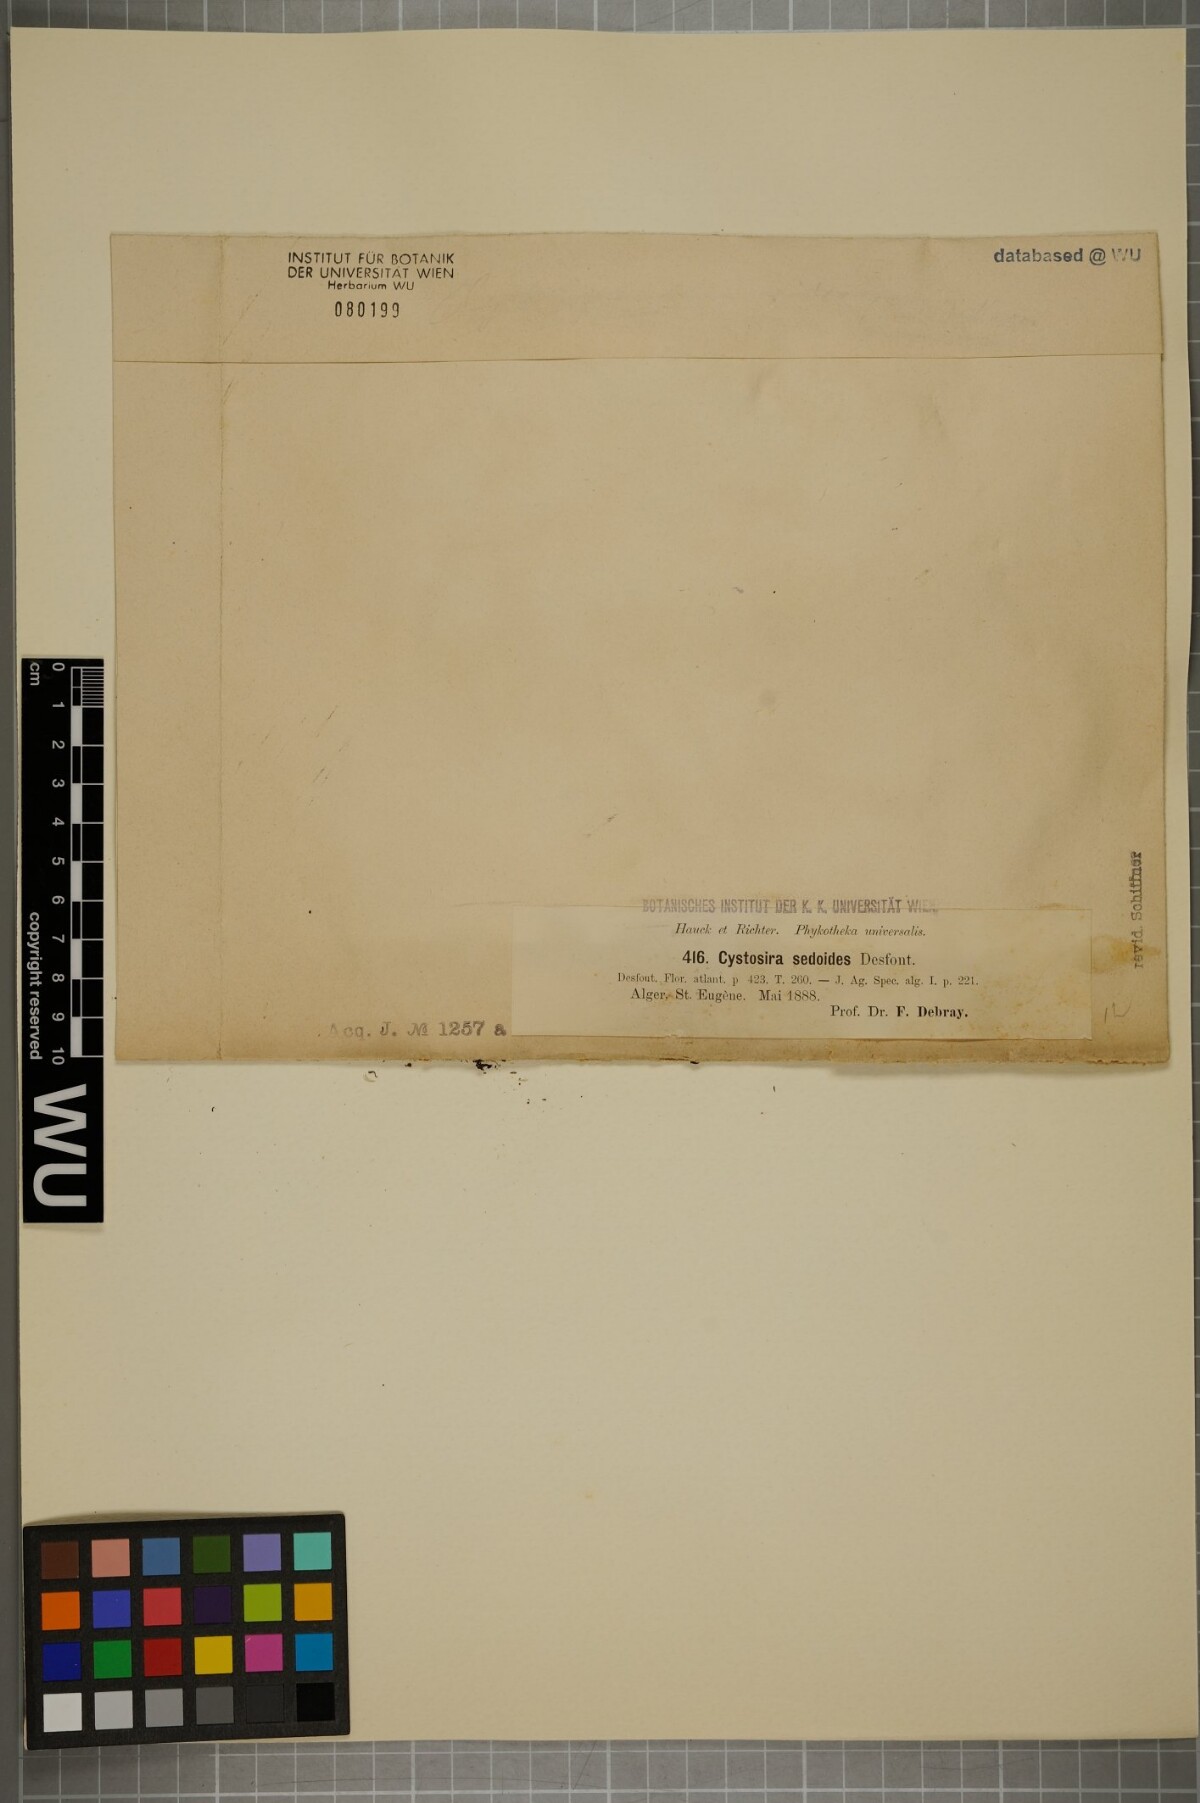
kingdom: Chromista
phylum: Ochrophyta
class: Phaeophyceae
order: Fucales
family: Sargassaceae
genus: Cystoseira
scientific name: Cystoseira sedoides
